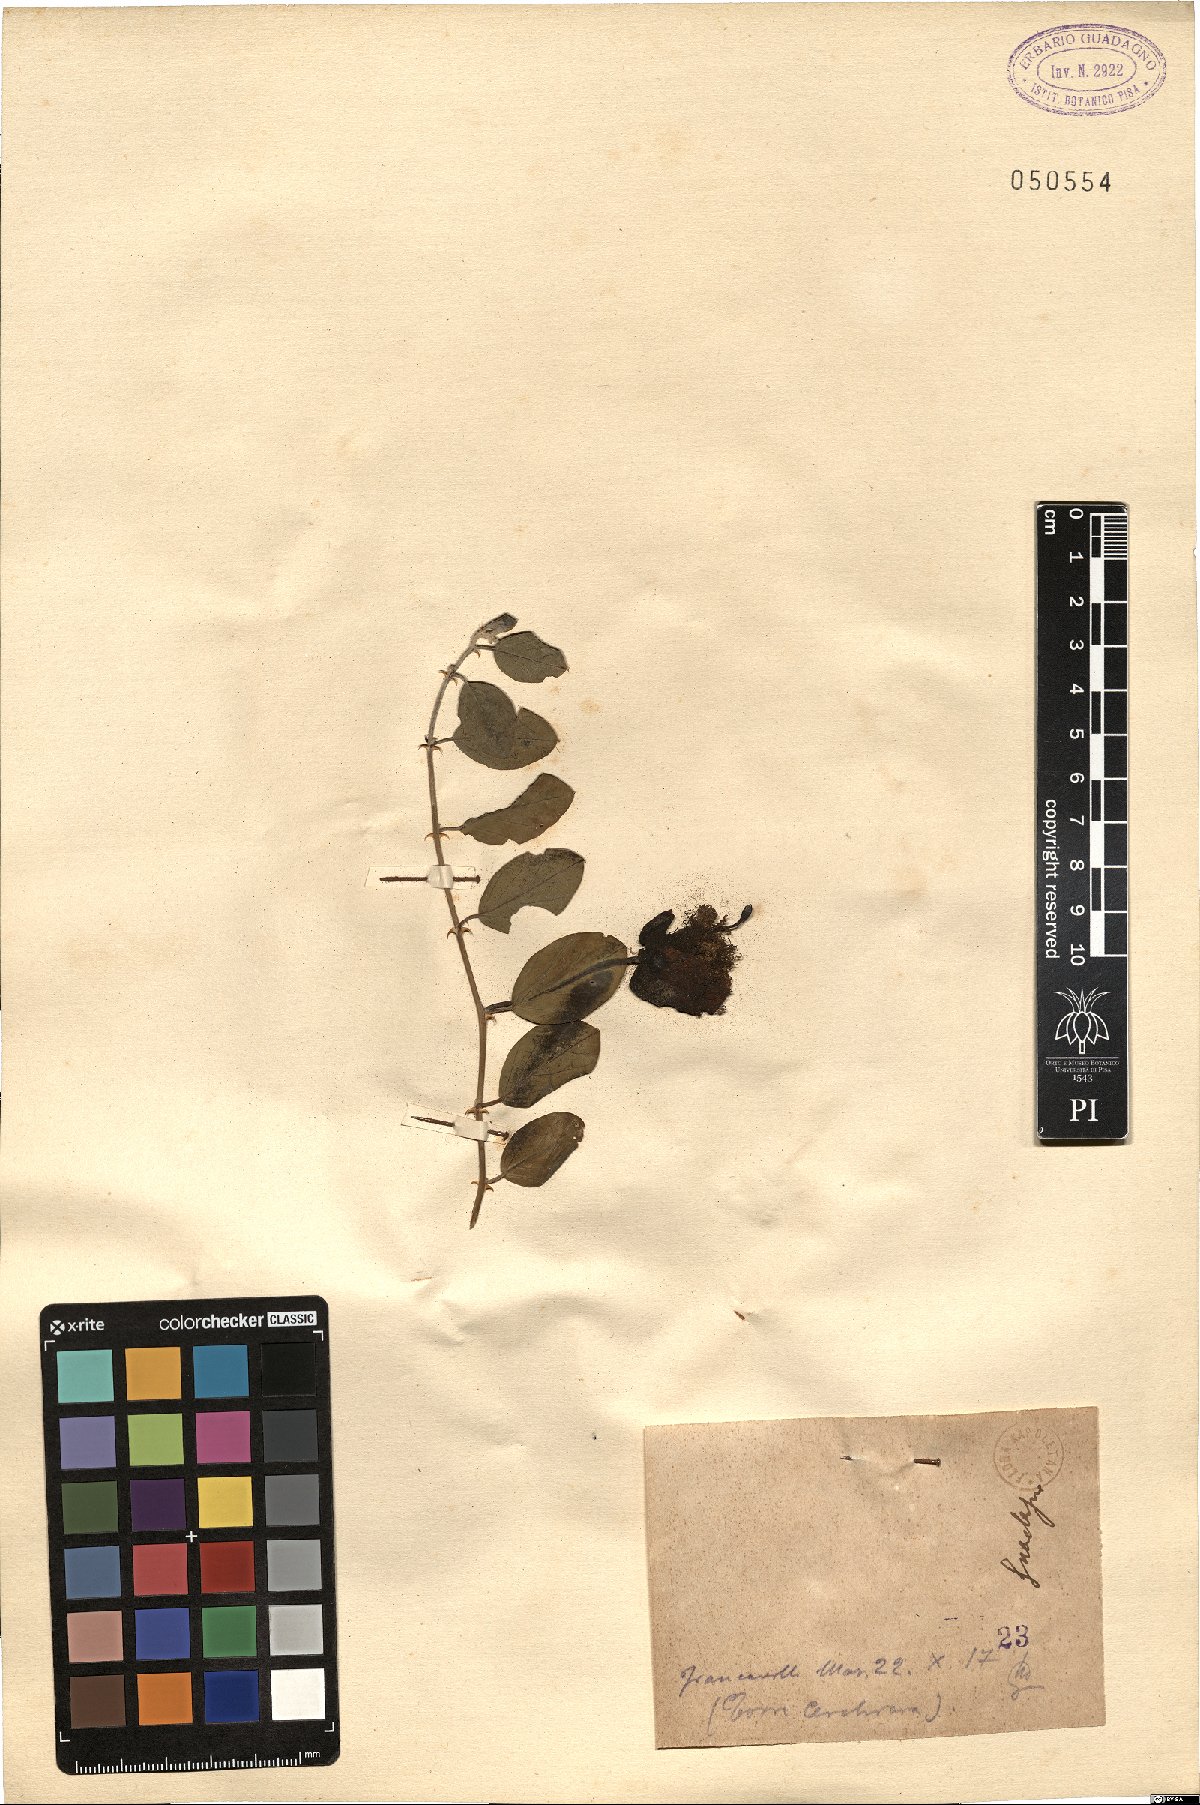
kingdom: Plantae
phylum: Tracheophyta
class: Magnoliopsida
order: Brassicales
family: Capparaceae
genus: Capparis
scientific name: Capparis
